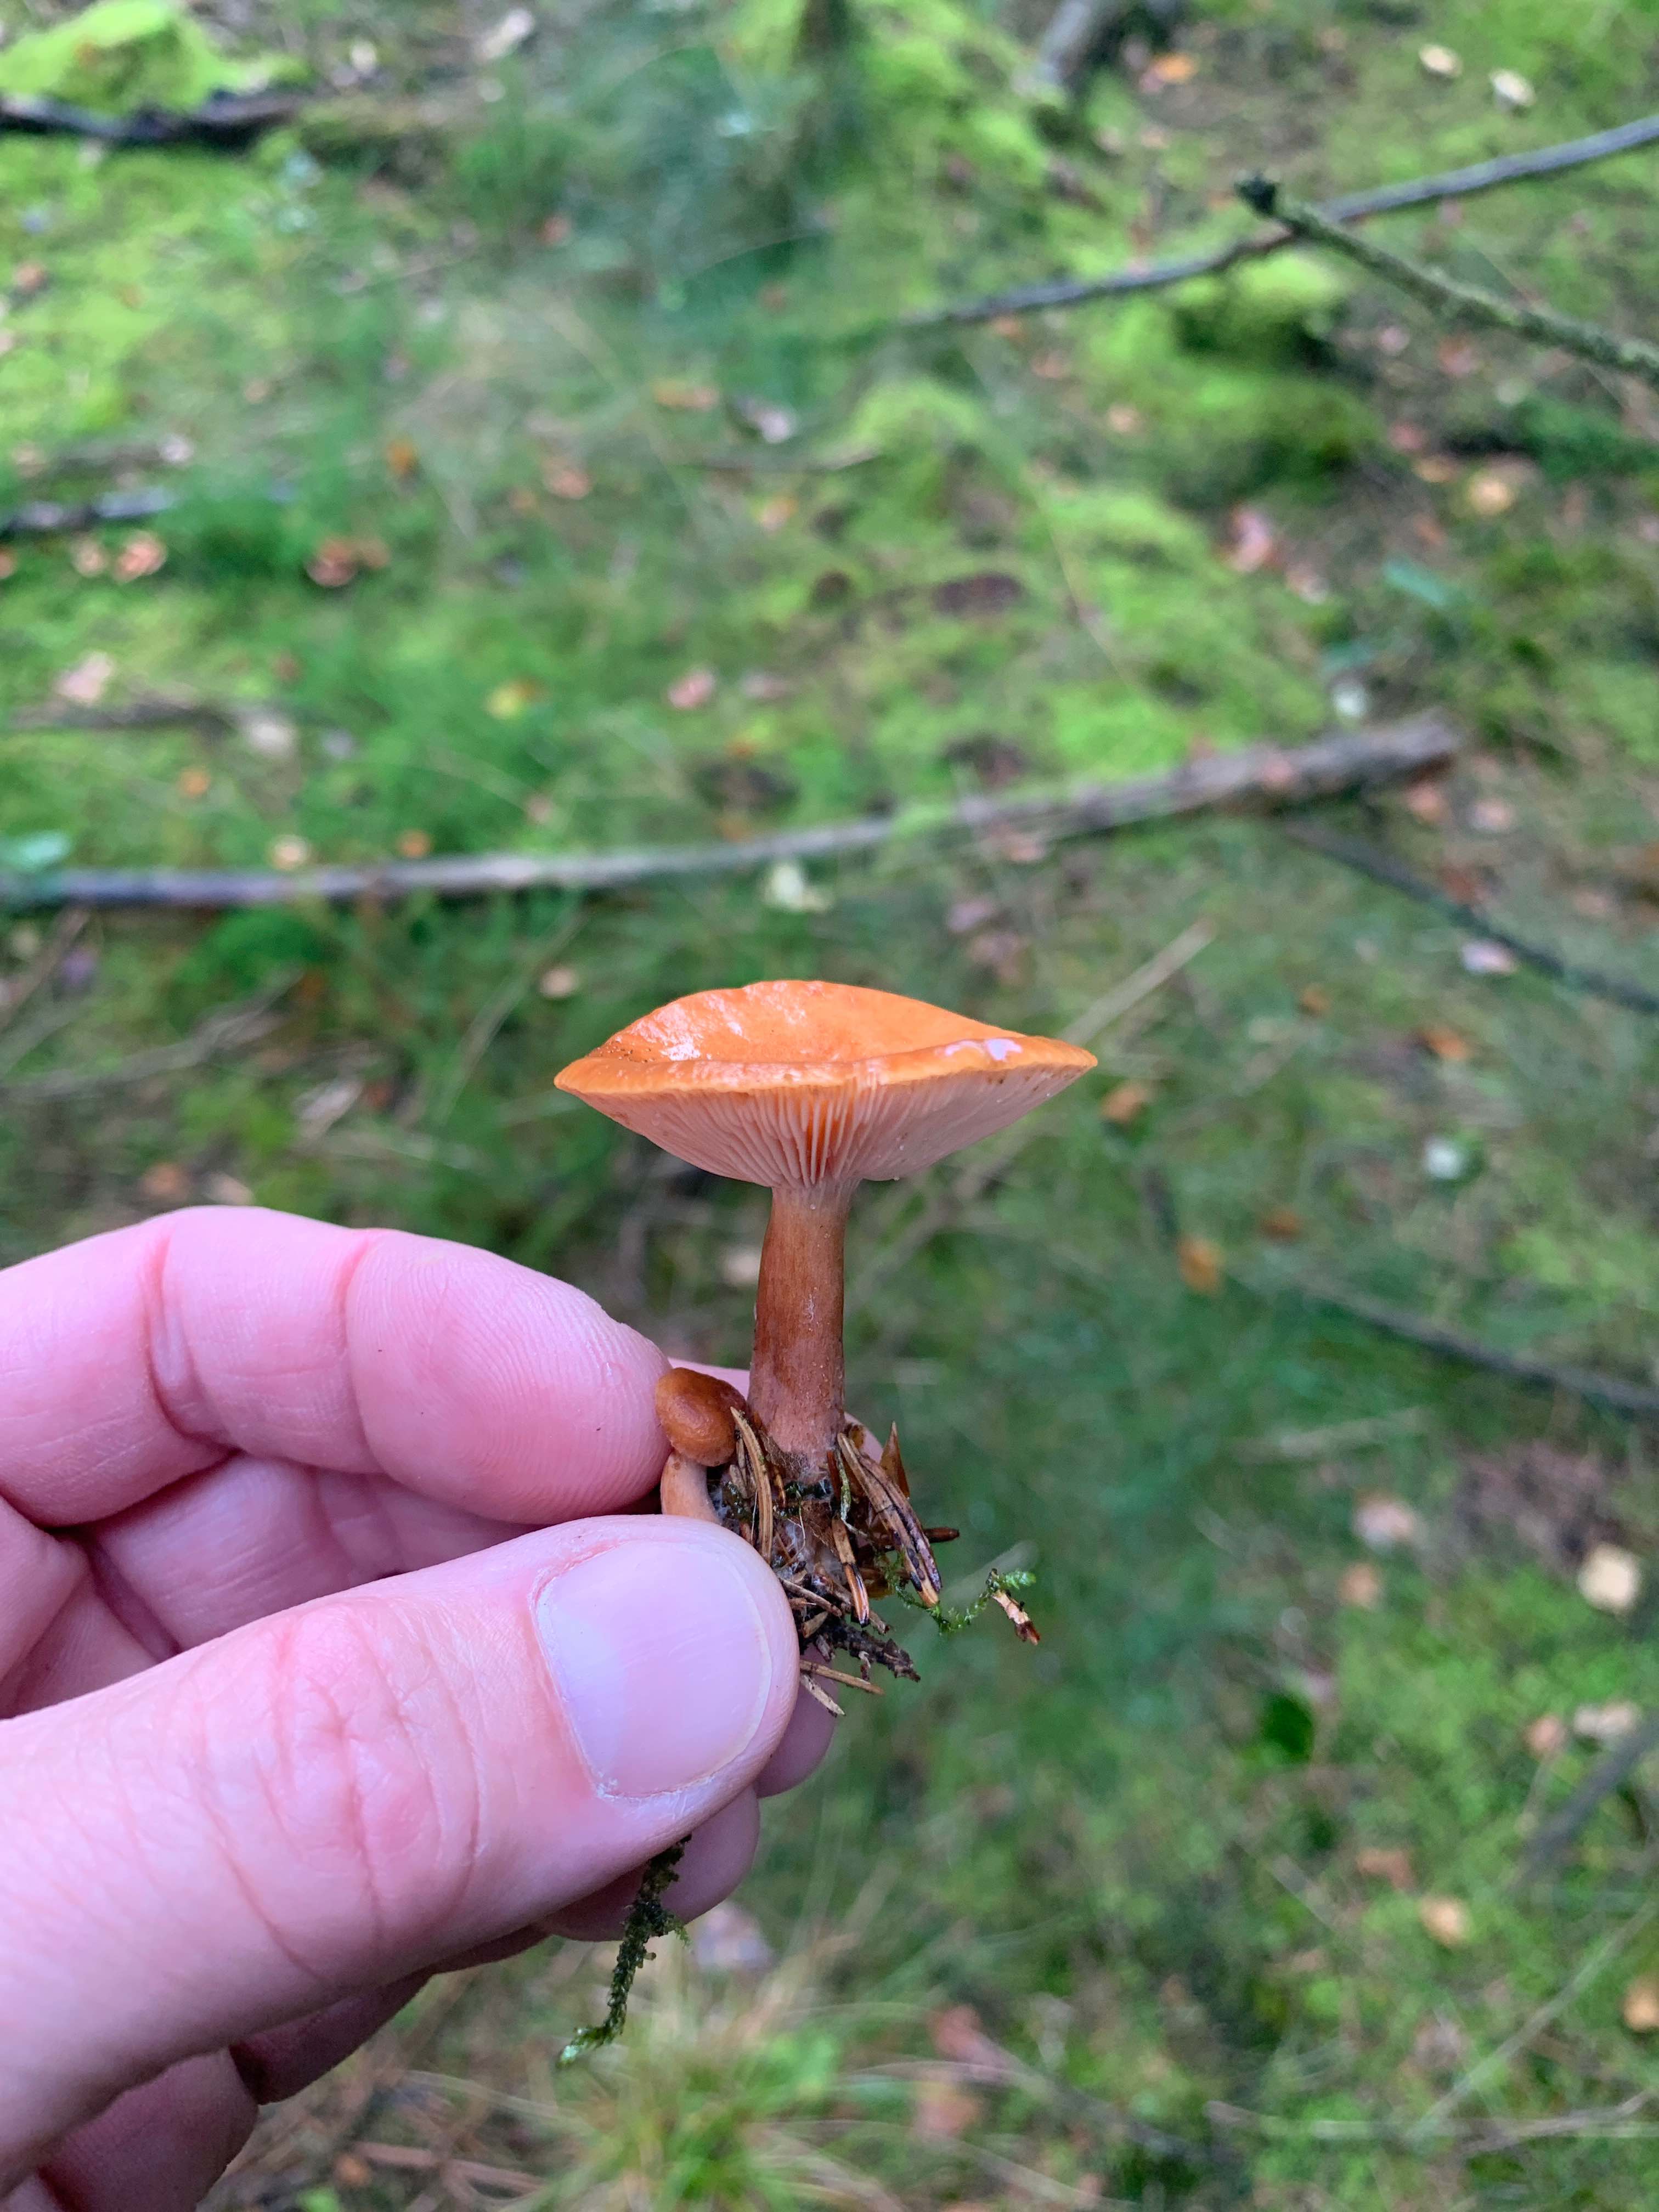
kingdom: Fungi
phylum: Basidiomycota
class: Agaricomycetes
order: Russulales
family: Russulaceae
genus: Lactarius
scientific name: Lactarius
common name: mælkehat
